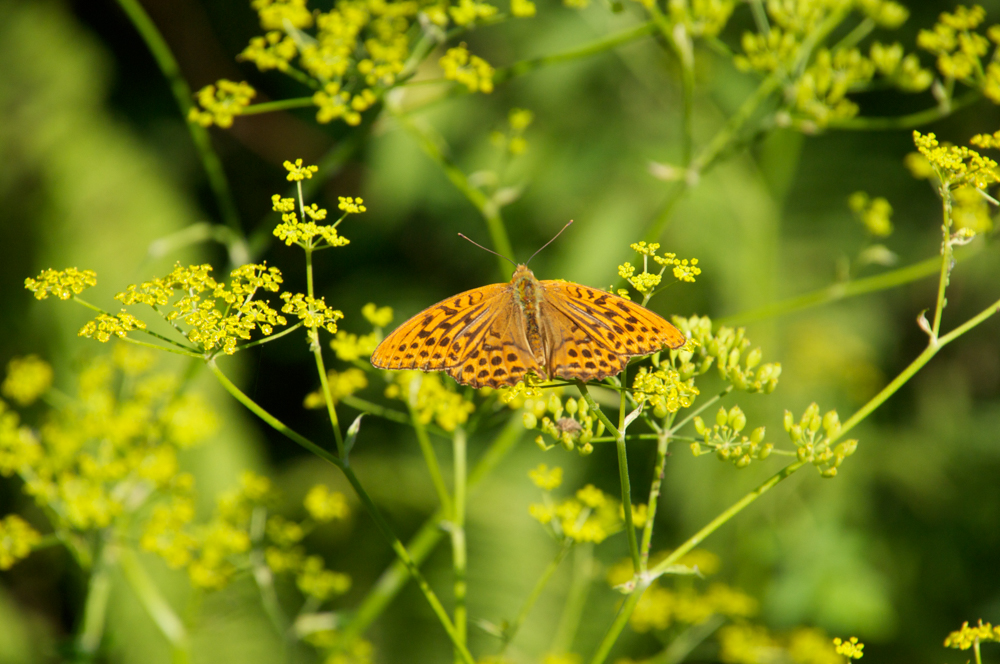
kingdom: Animalia
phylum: Arthropoda
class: Insecta
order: Lepidoptera
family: Nymphalidae
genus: Argynnis
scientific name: Argynnis paphia
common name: Silver-washed fritillary
